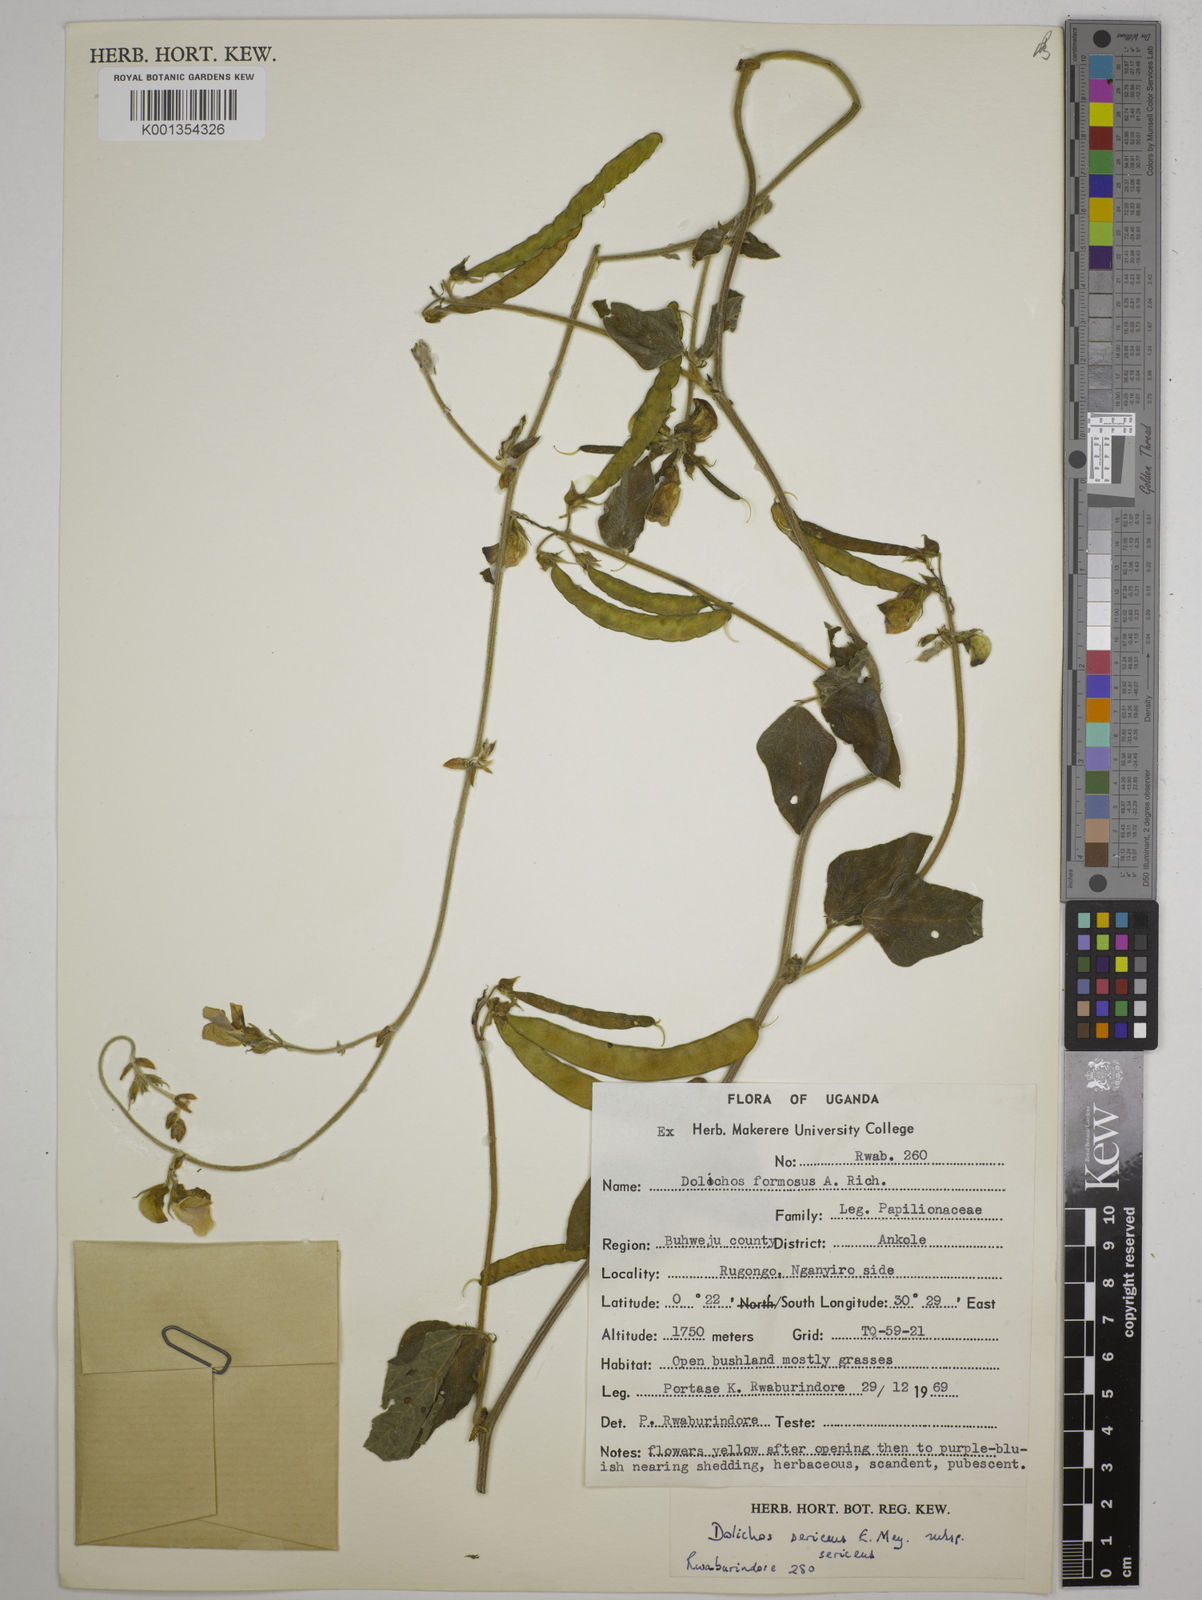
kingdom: Plantae
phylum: Tracheophyta
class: Magnoliopsida
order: Fabales
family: Fabaceae
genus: Dolichos
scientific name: Dolichos sericeus
